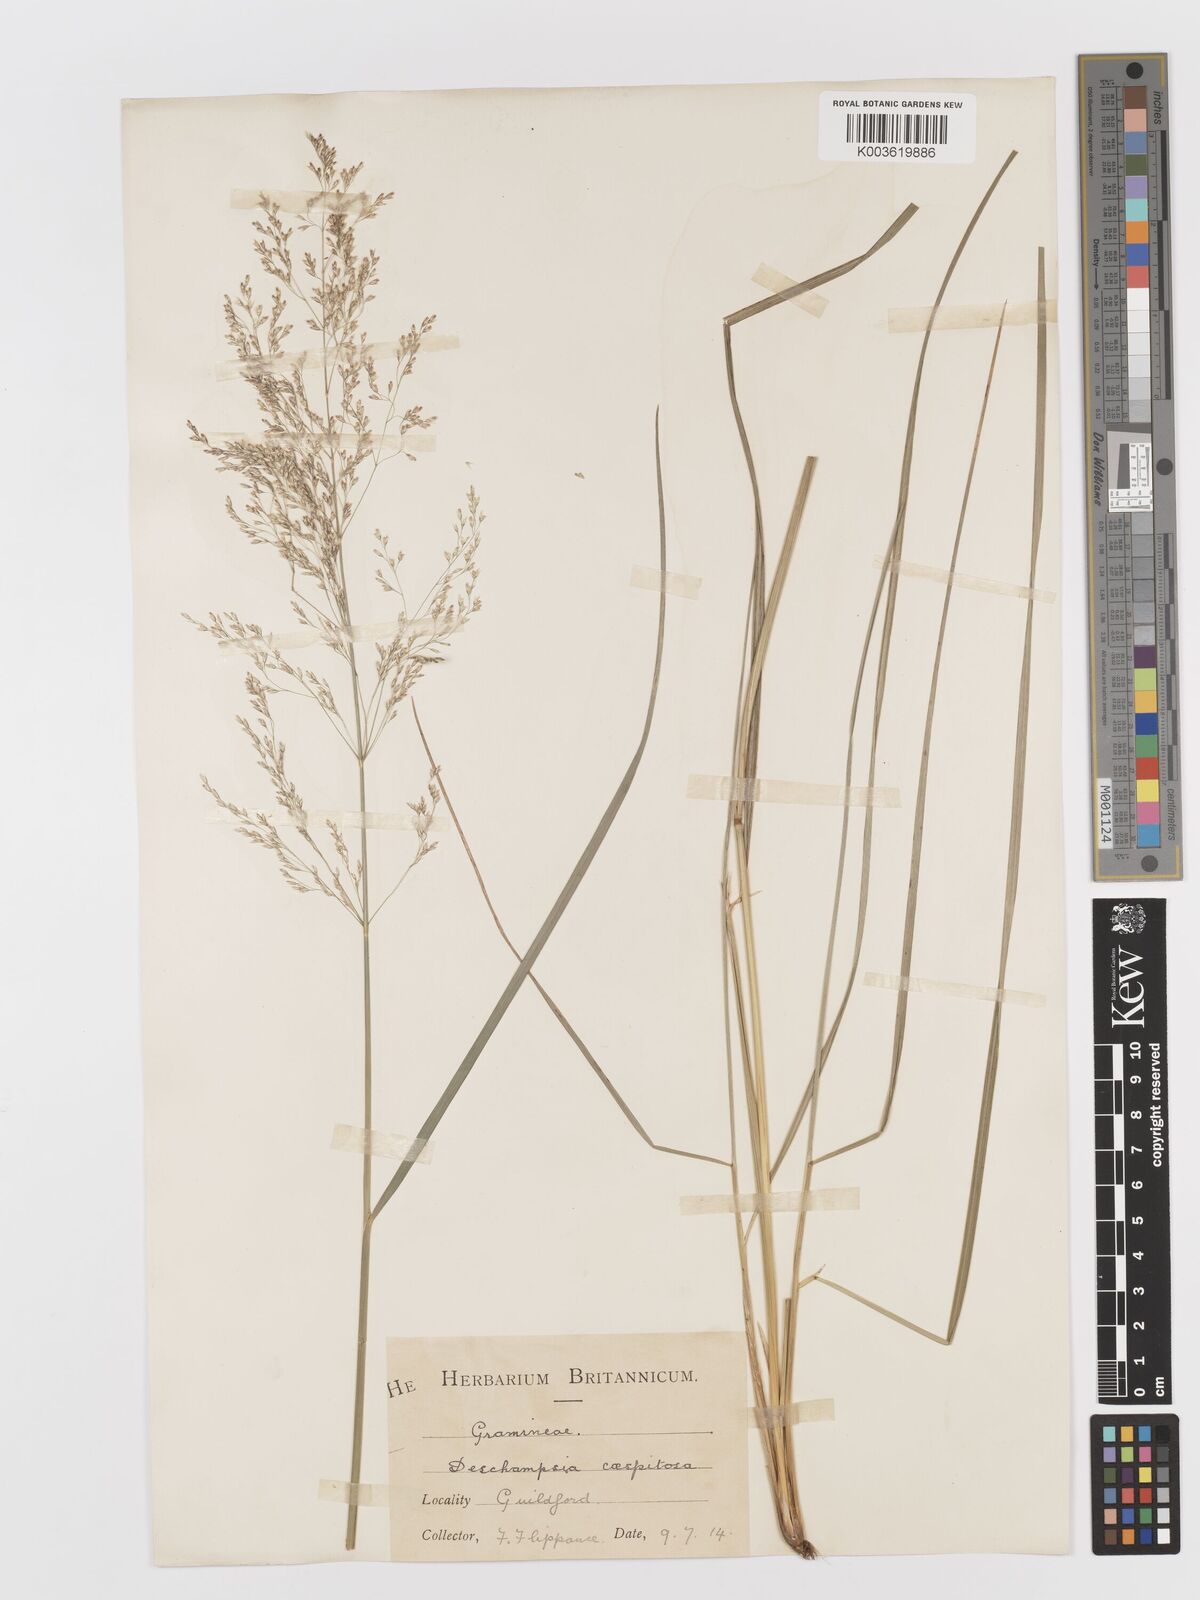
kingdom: Plantae
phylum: Tracheophyta
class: Liliopsida
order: Poales
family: Poaceae
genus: Deschampsia
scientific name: Deschampsia cespitosa
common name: Tufted hair-grass
